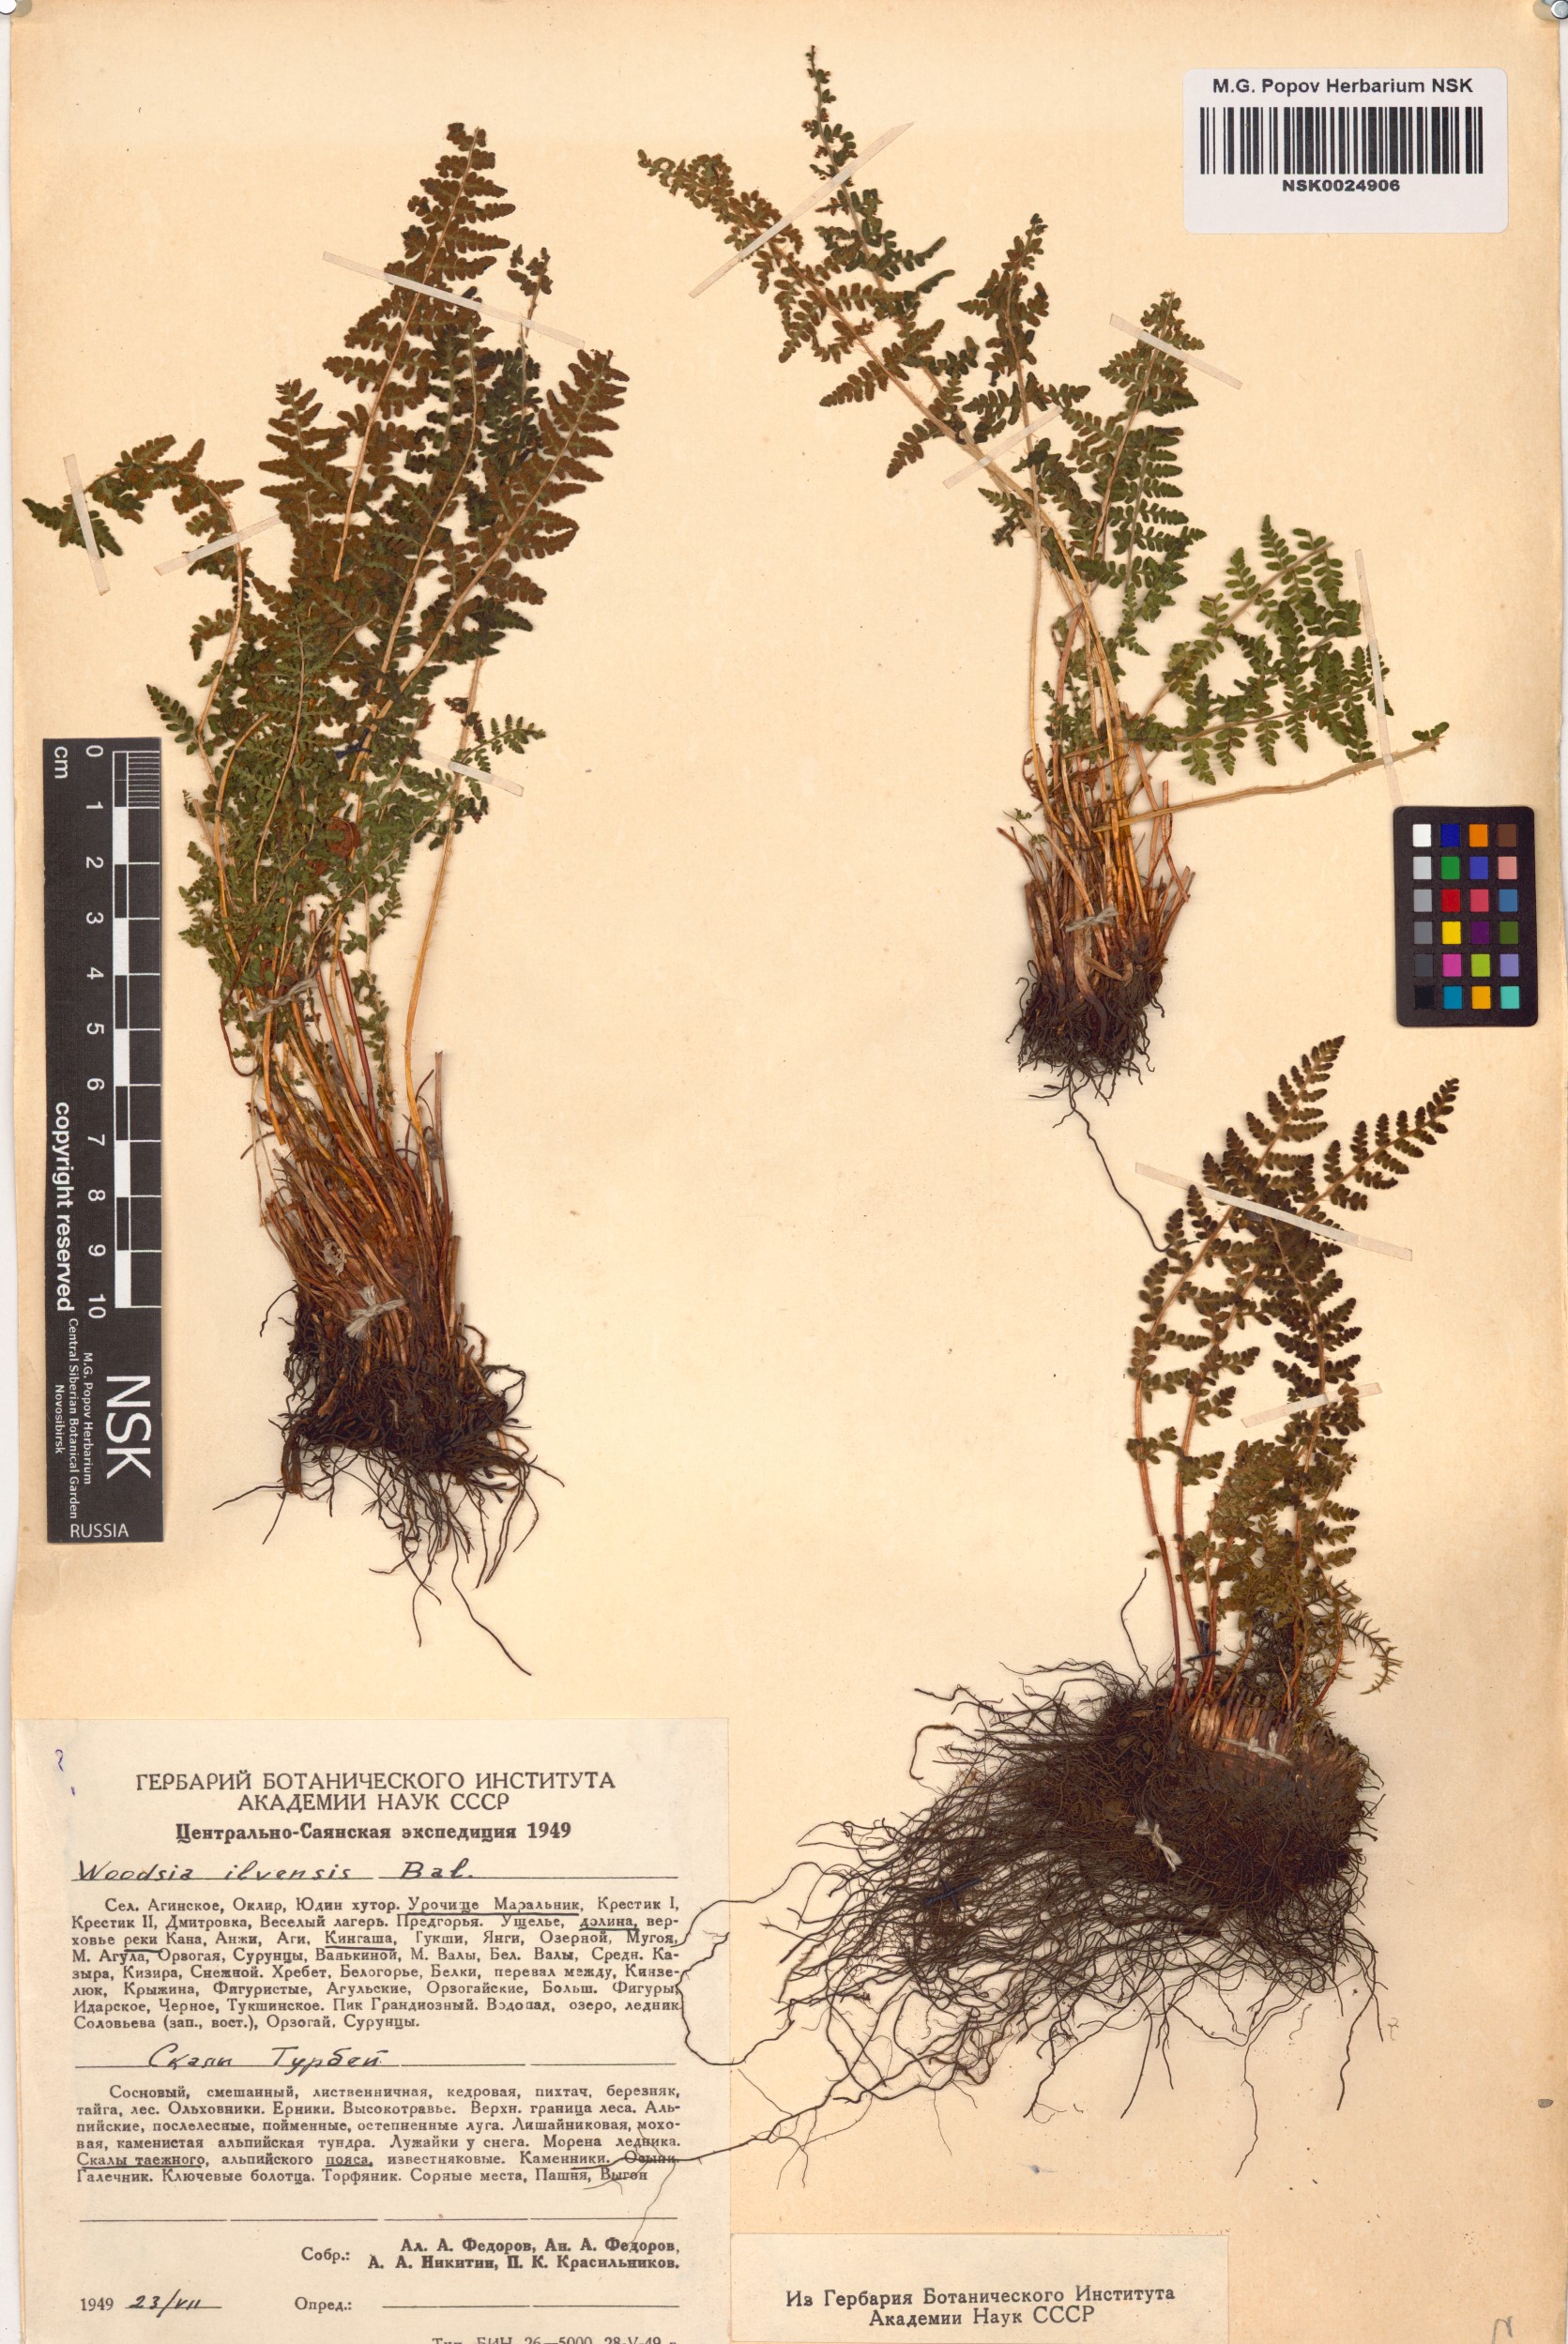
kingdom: Plantae
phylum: Tracheophyta
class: Polypodiopsida
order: Polypodiales
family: Woodsiaceae
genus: Woodsia
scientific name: Woodsia ilvensis
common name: Fragrant woodsia
